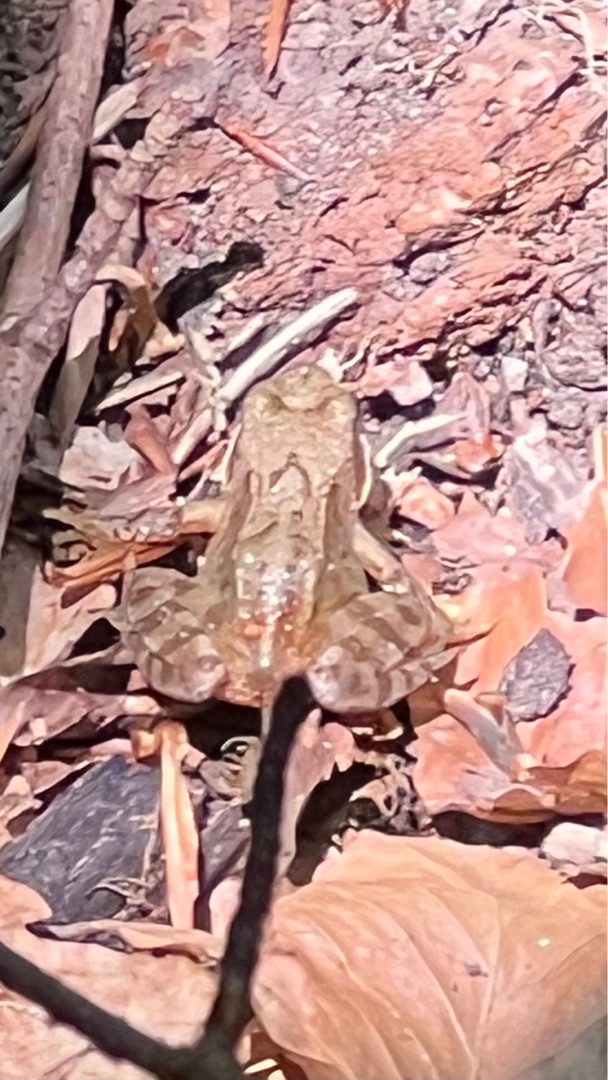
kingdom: Animalia
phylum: Chordata
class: Amphibia
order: Anura
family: Ranidae
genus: Rana
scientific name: Rana temporaria
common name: Butsnudet frø
